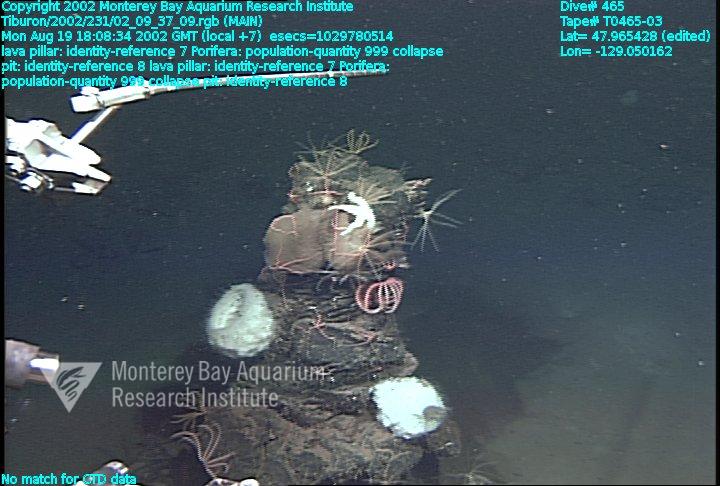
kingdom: Animalia
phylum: Porifera
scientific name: Porifera
